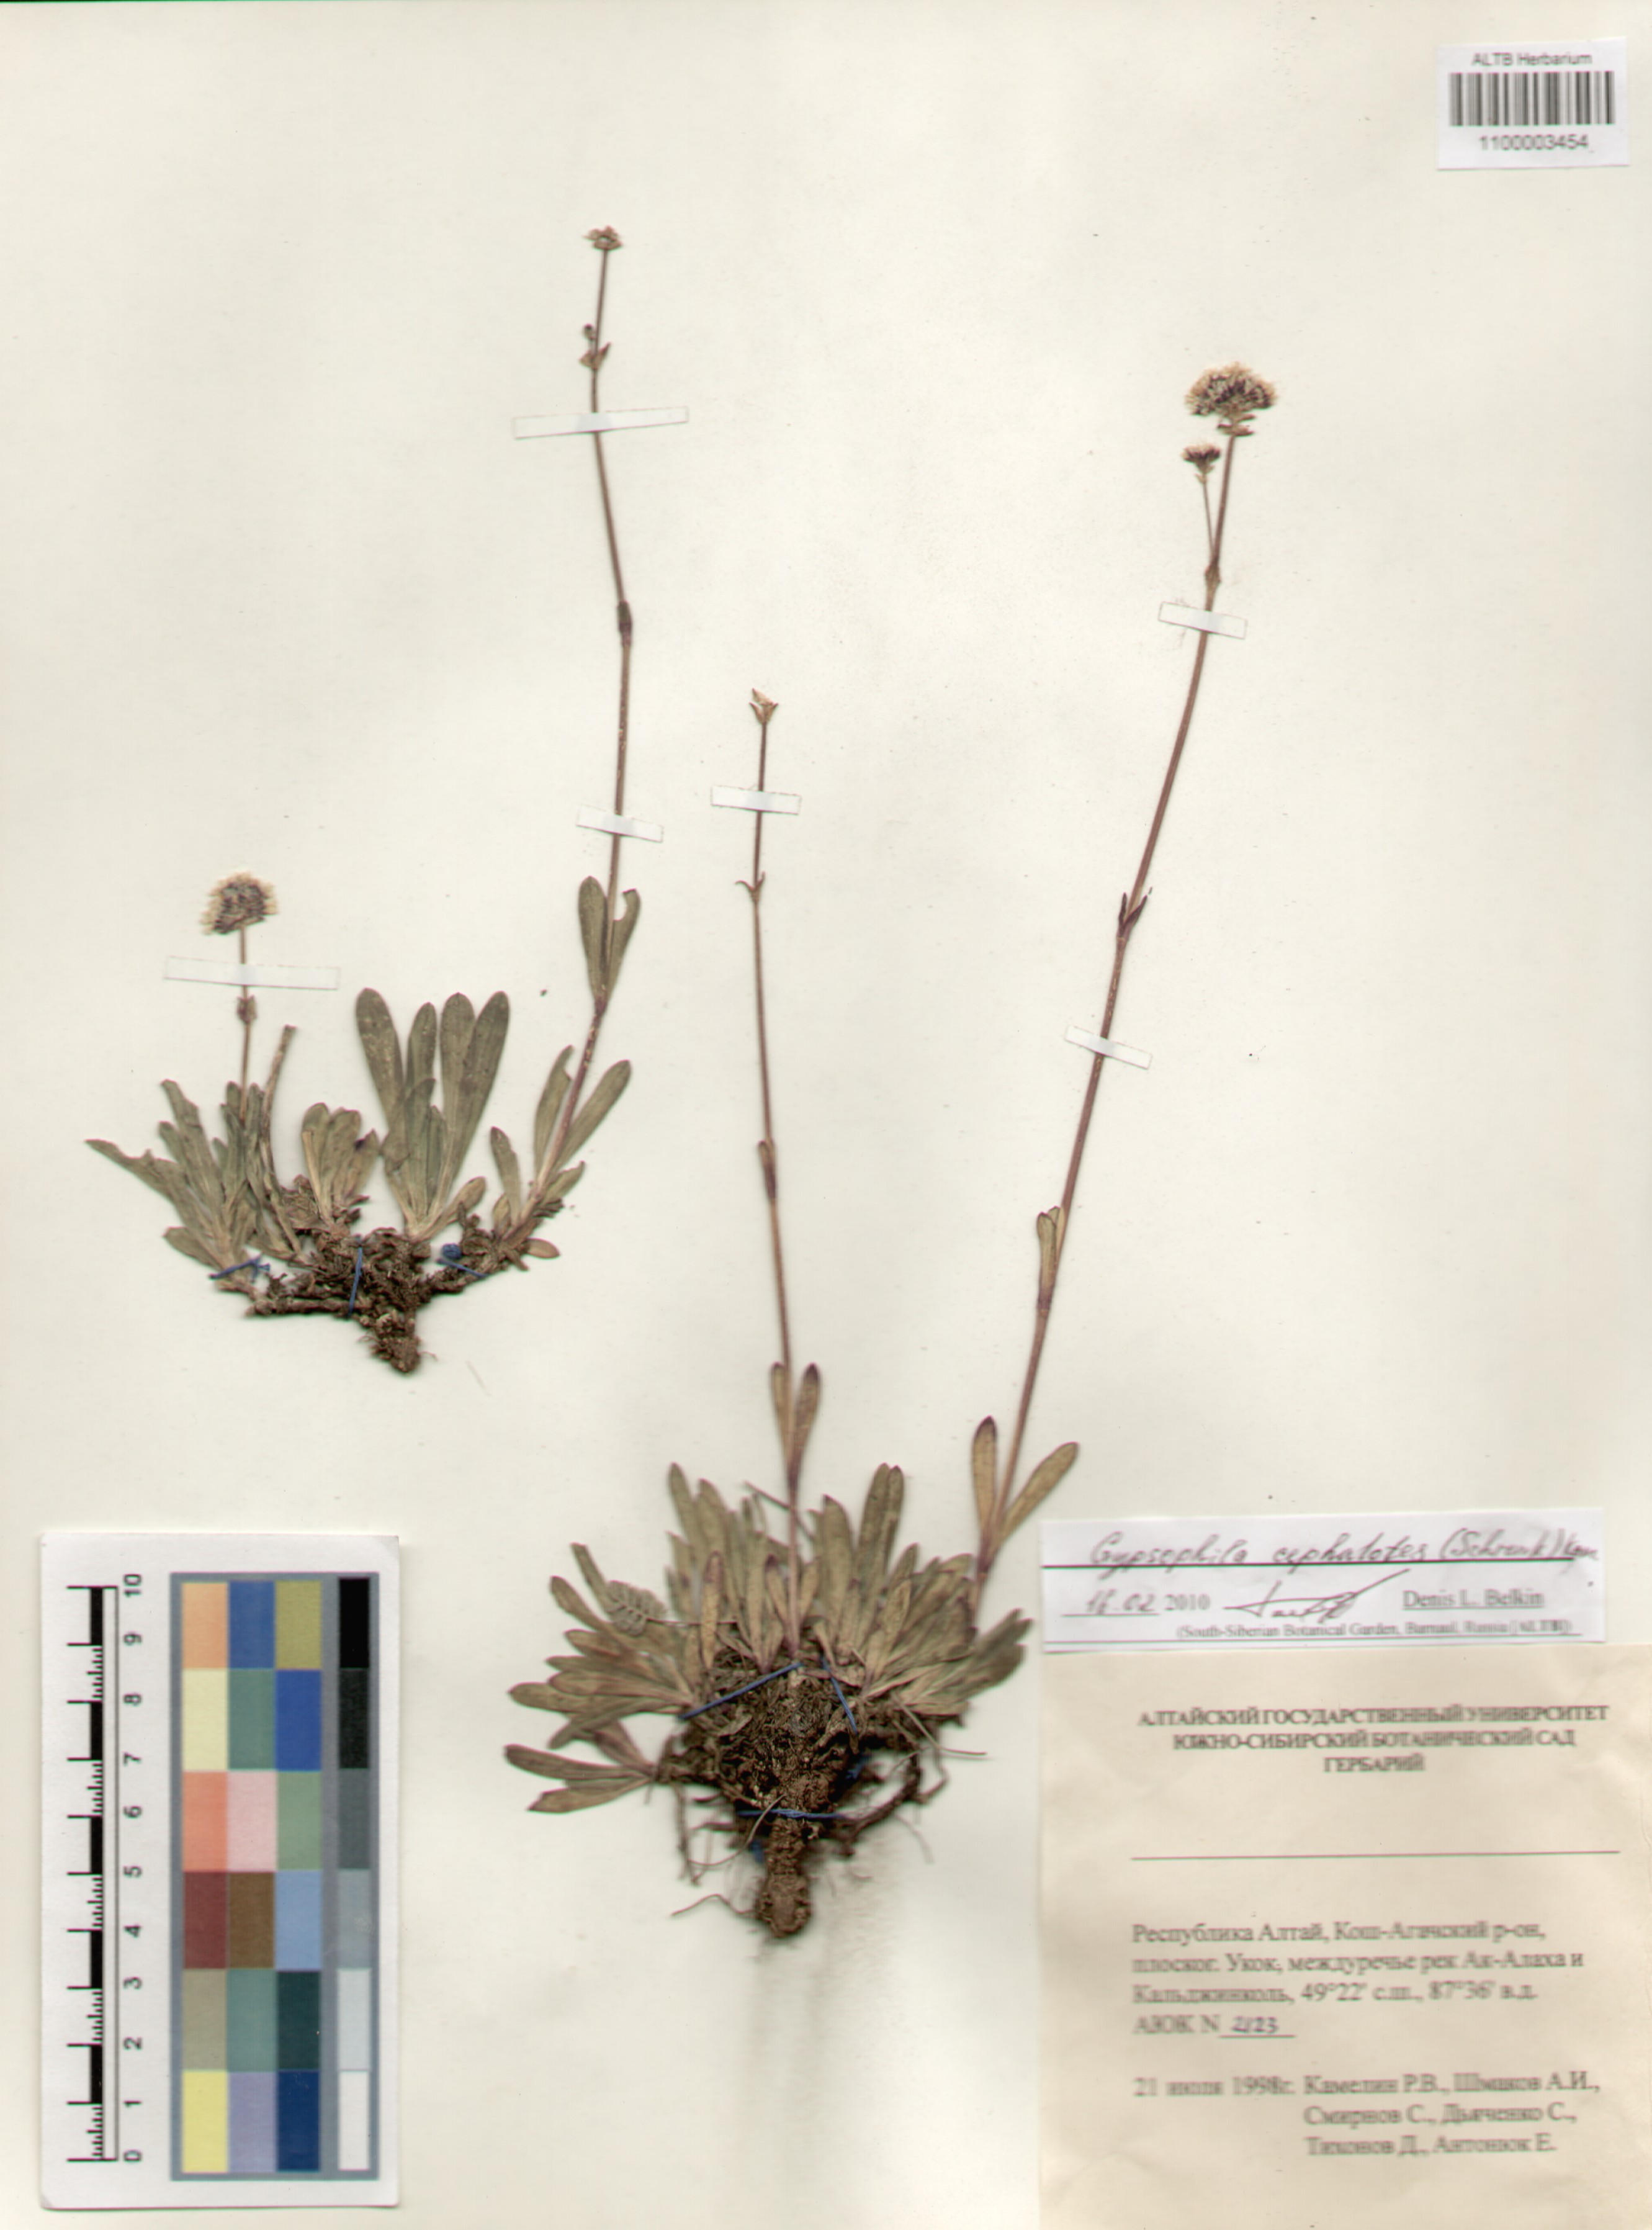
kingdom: Plantae
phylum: Tracheophyta
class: Magnoliopsida
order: Caryophyllales
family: Caryophyllaceae
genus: Gypsophila
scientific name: Gypsophila cephalotes
